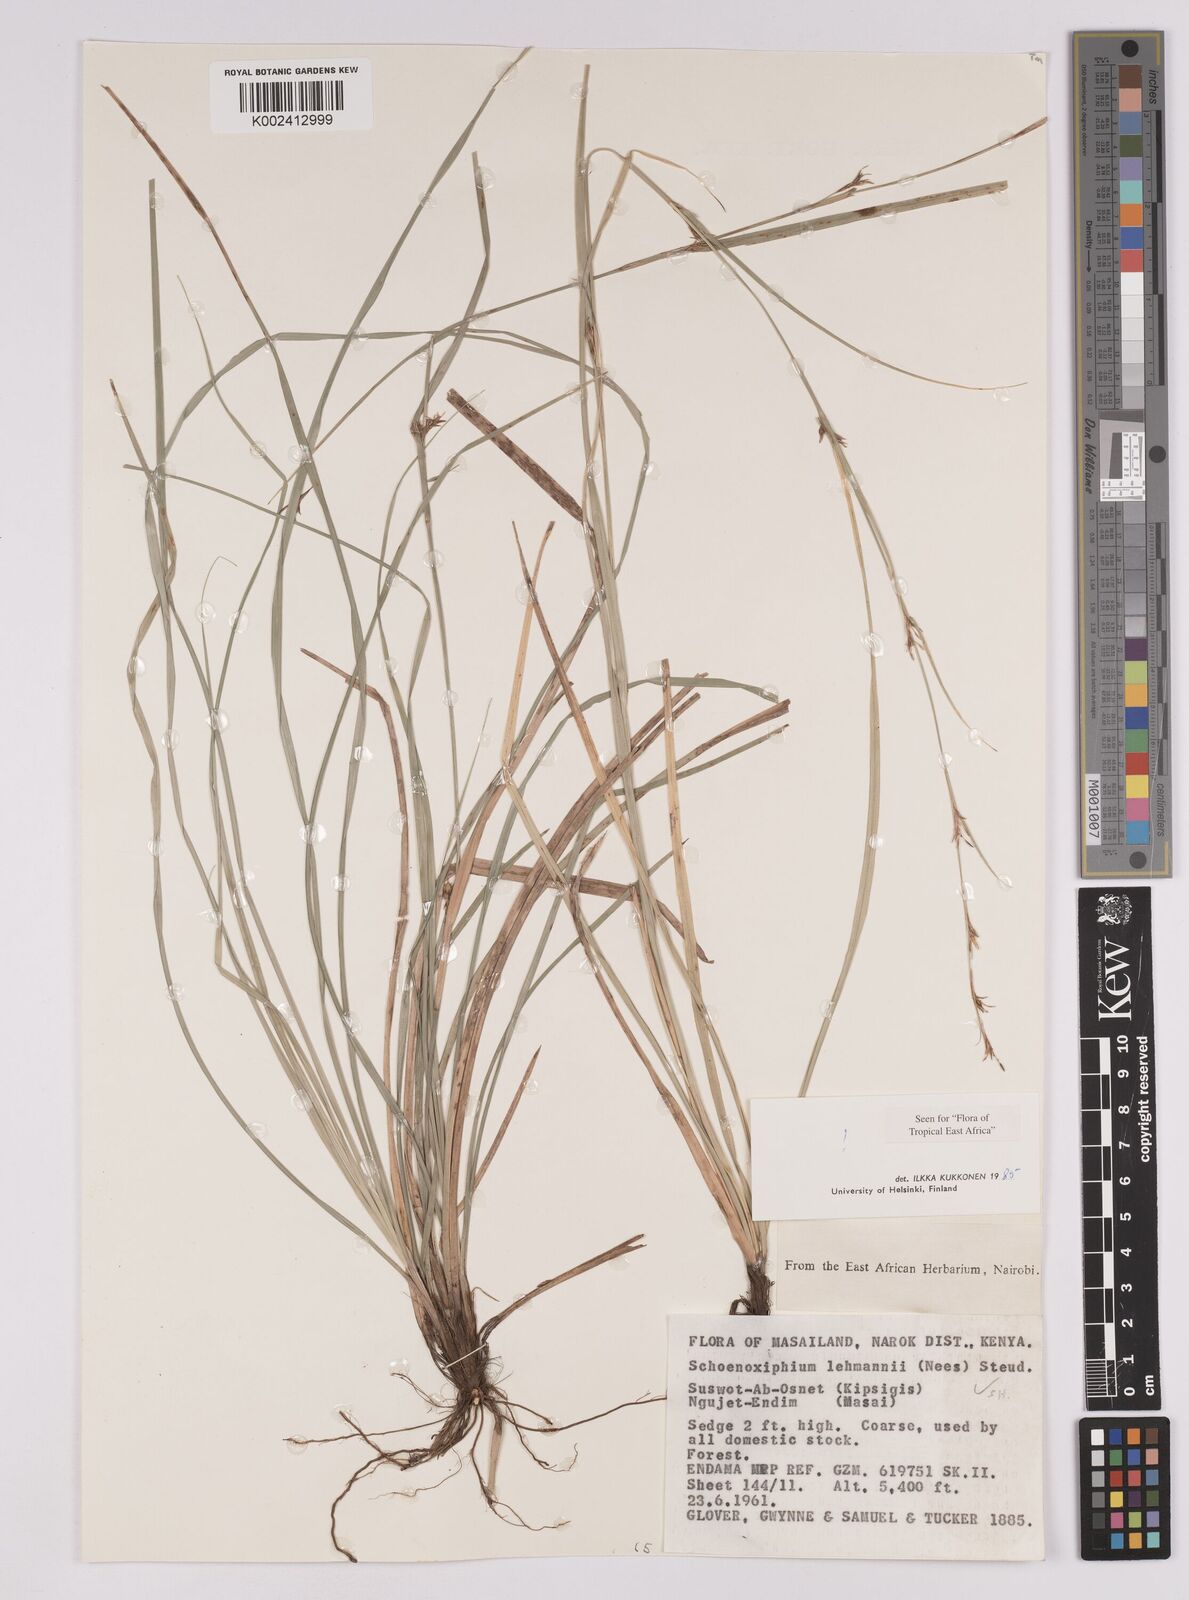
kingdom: Plantae
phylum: Tracheophyta
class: Liliopsida
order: Poales
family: Cyperaceae
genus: Carex
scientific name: Carex uhligii
